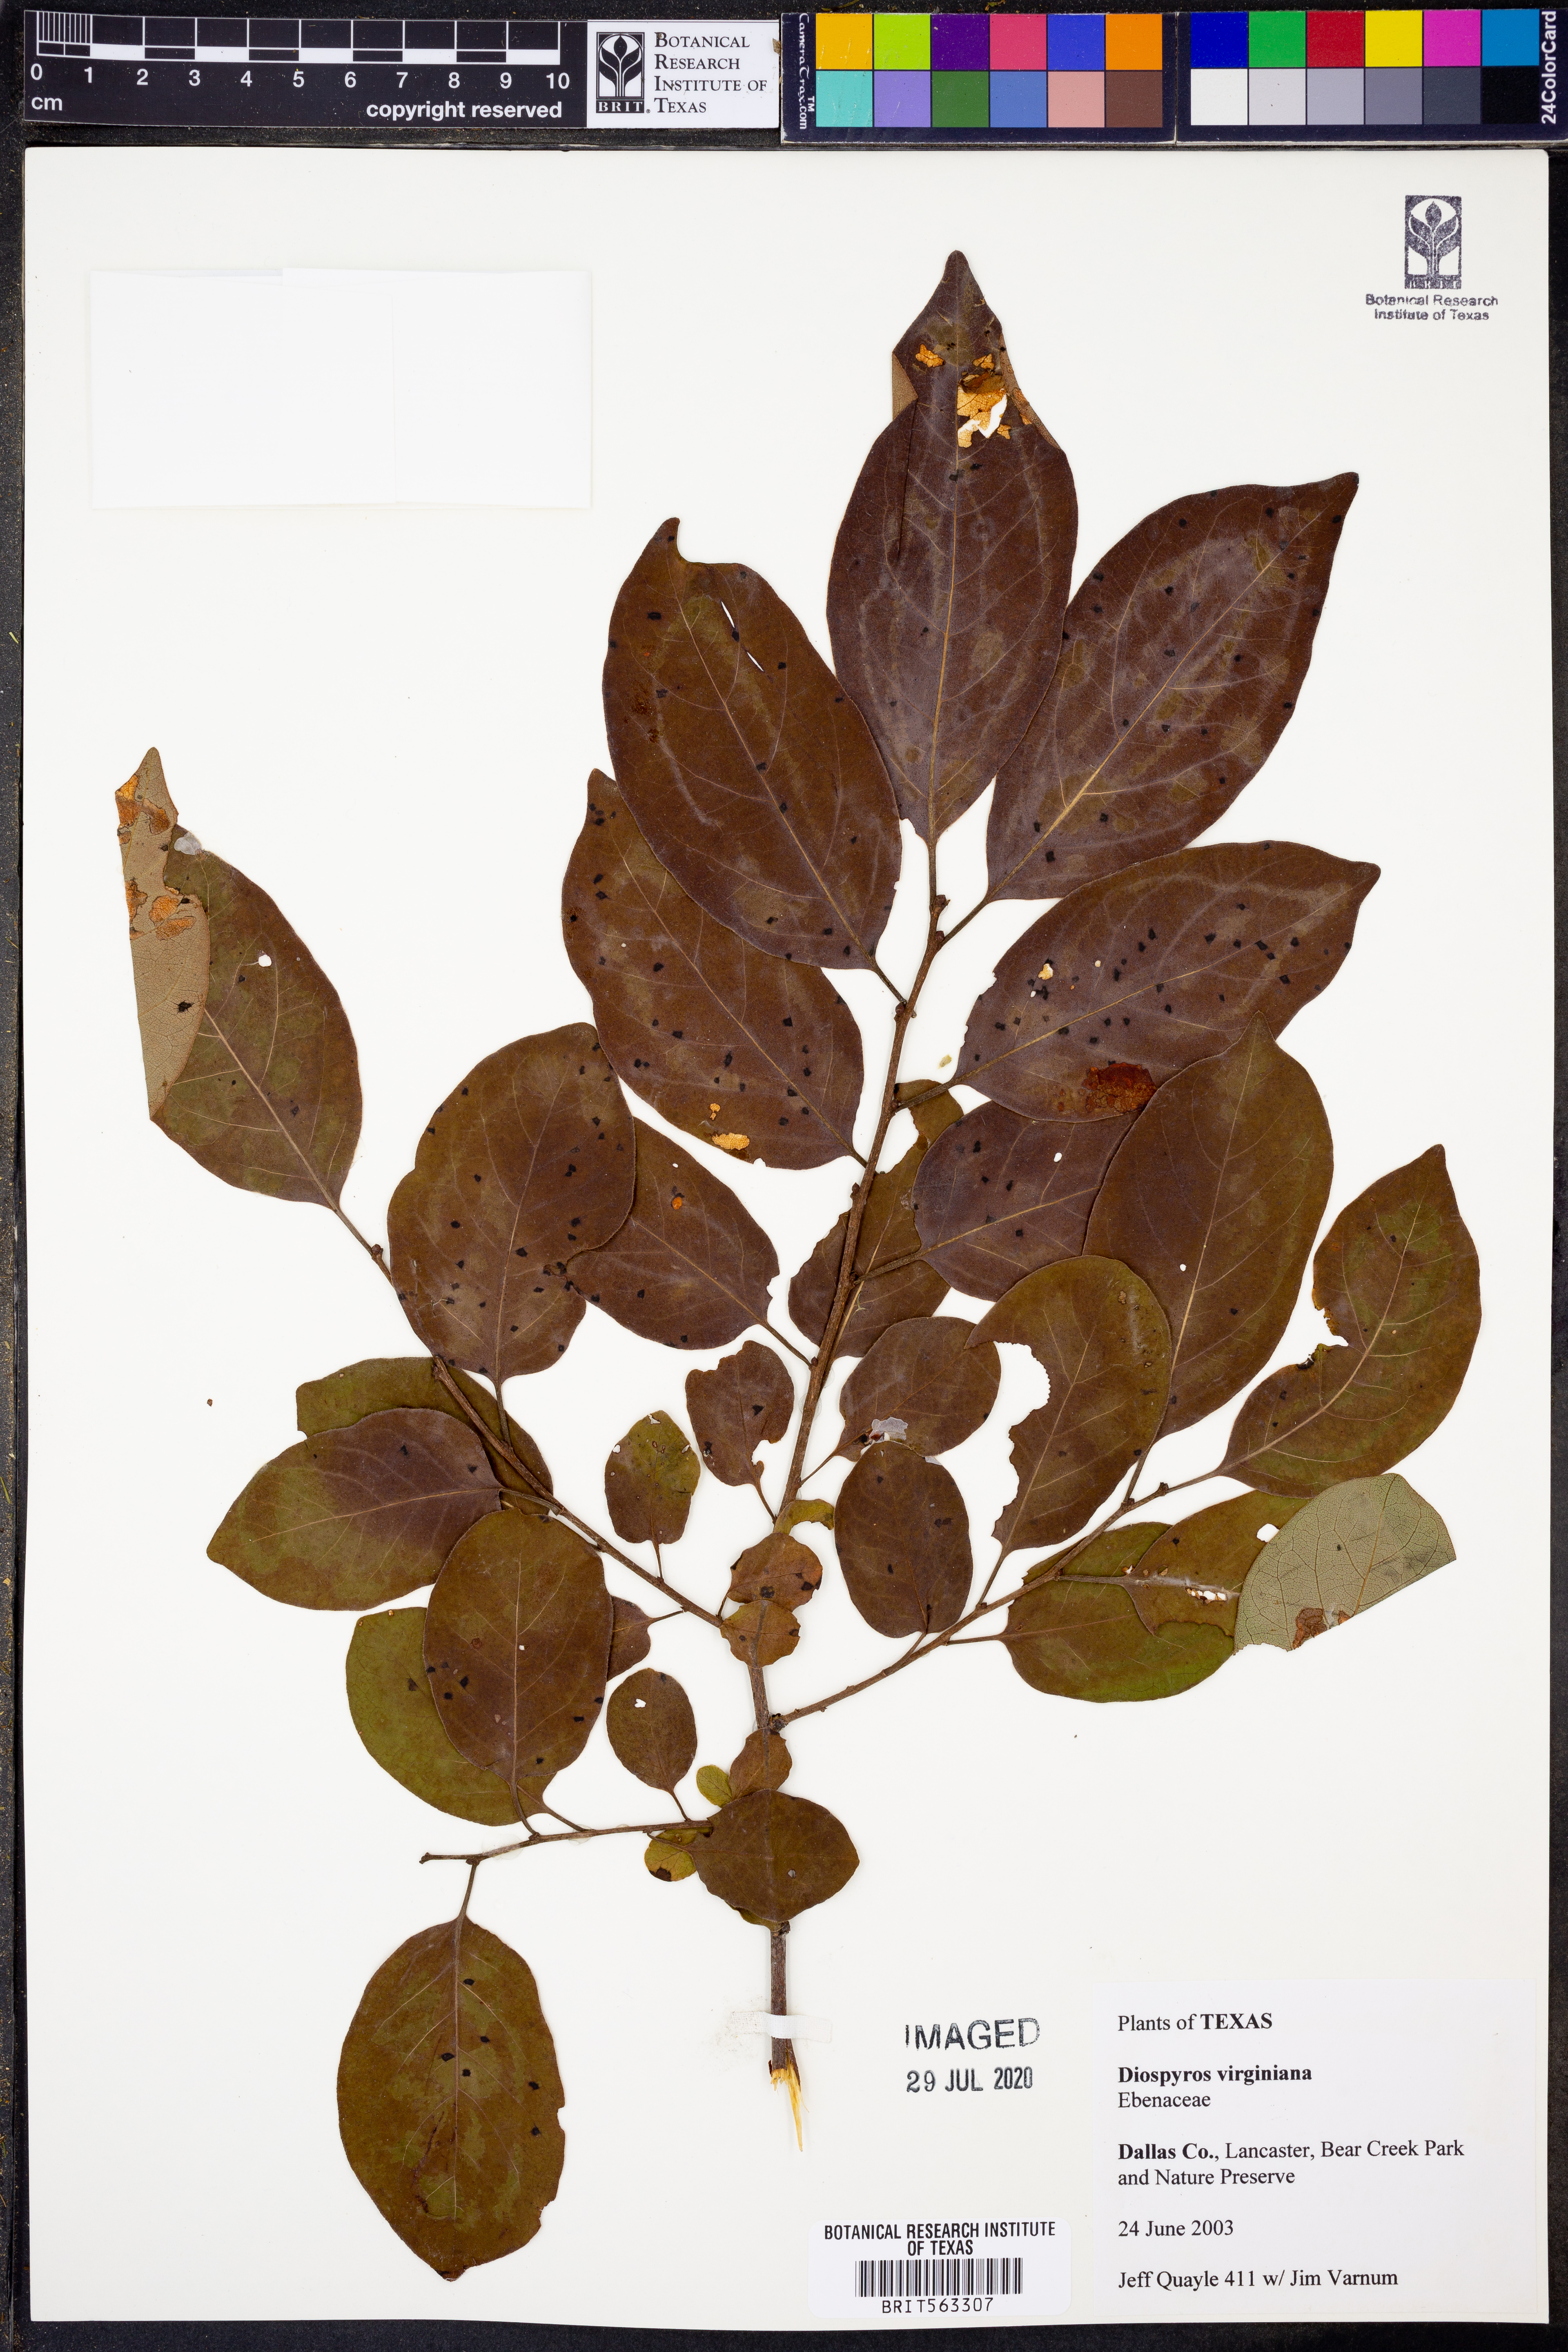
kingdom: Plantae
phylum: Tracheophyta
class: Magnoliopsida
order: Ericales
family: Ebenaceae
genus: Diospyros
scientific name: Diospyros virginiana
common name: Persimmon
